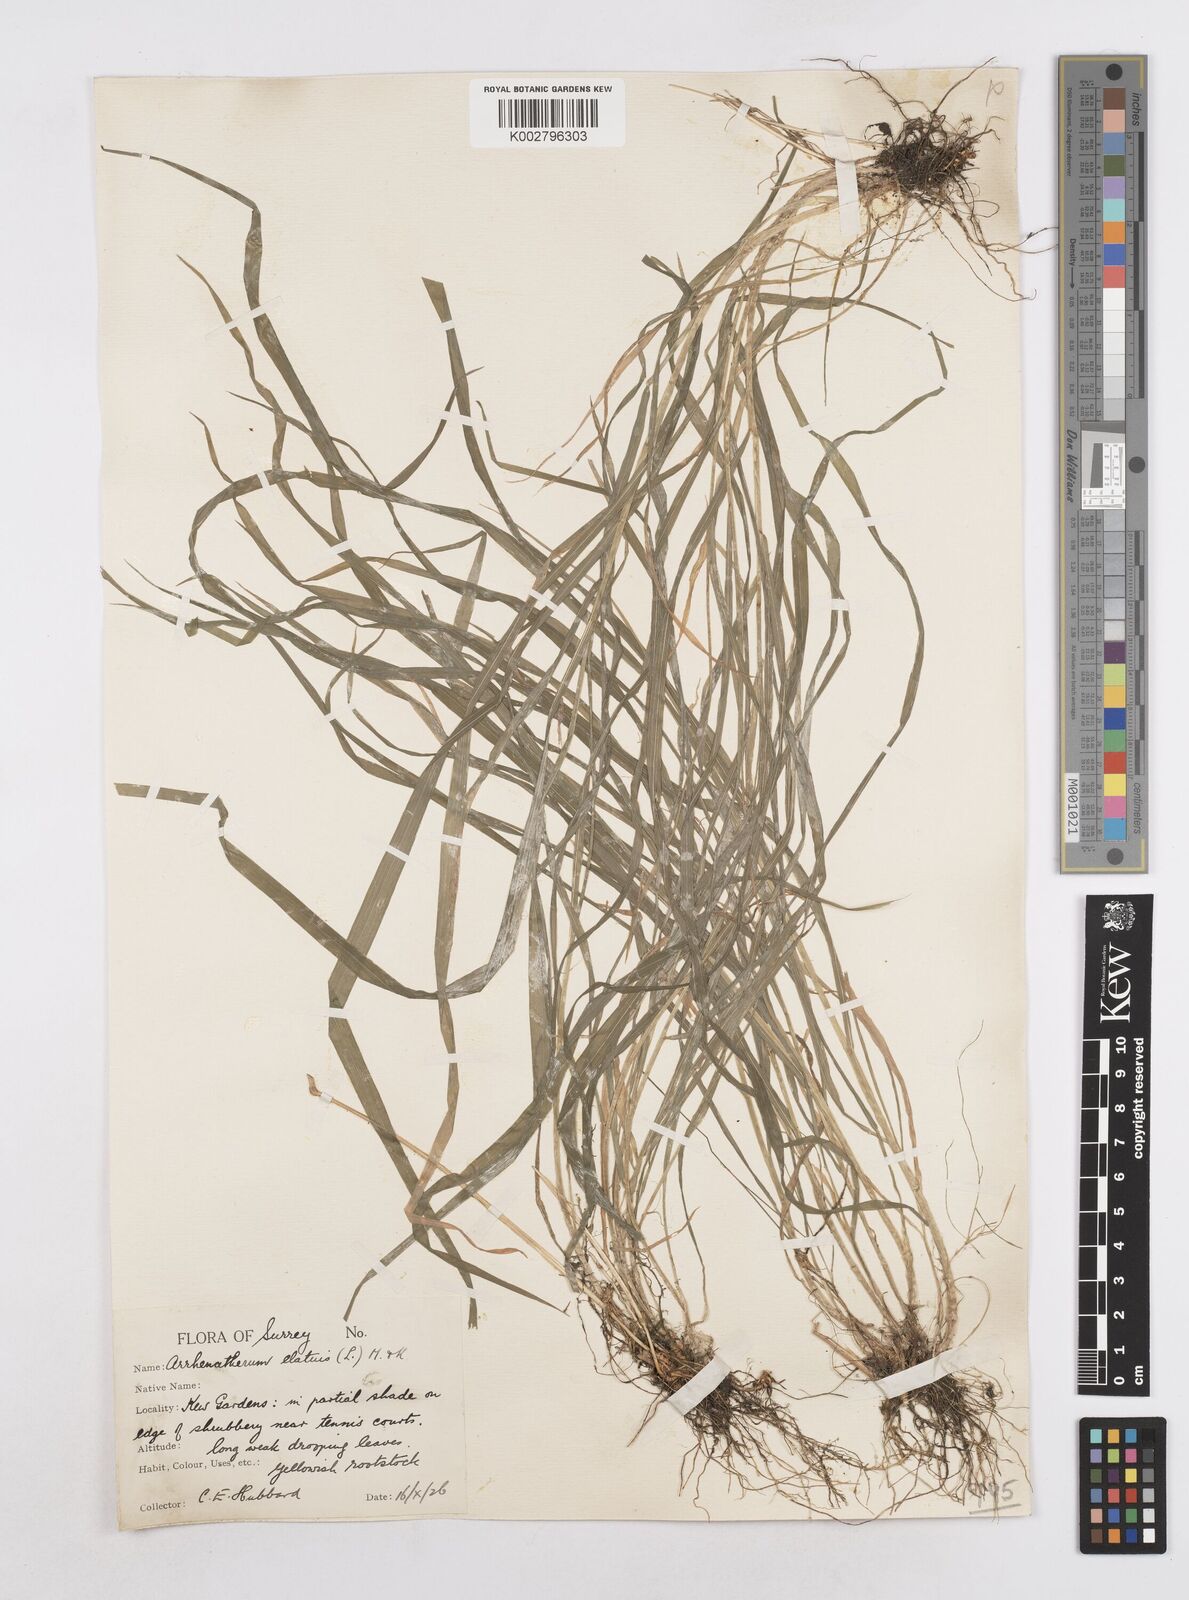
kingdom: Plantae
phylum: Tracheophyta
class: Liliopsida
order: Poales
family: Poaceae
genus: Arrhenatherum
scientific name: Arrhenatherum elatius
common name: Tall oatgrass
